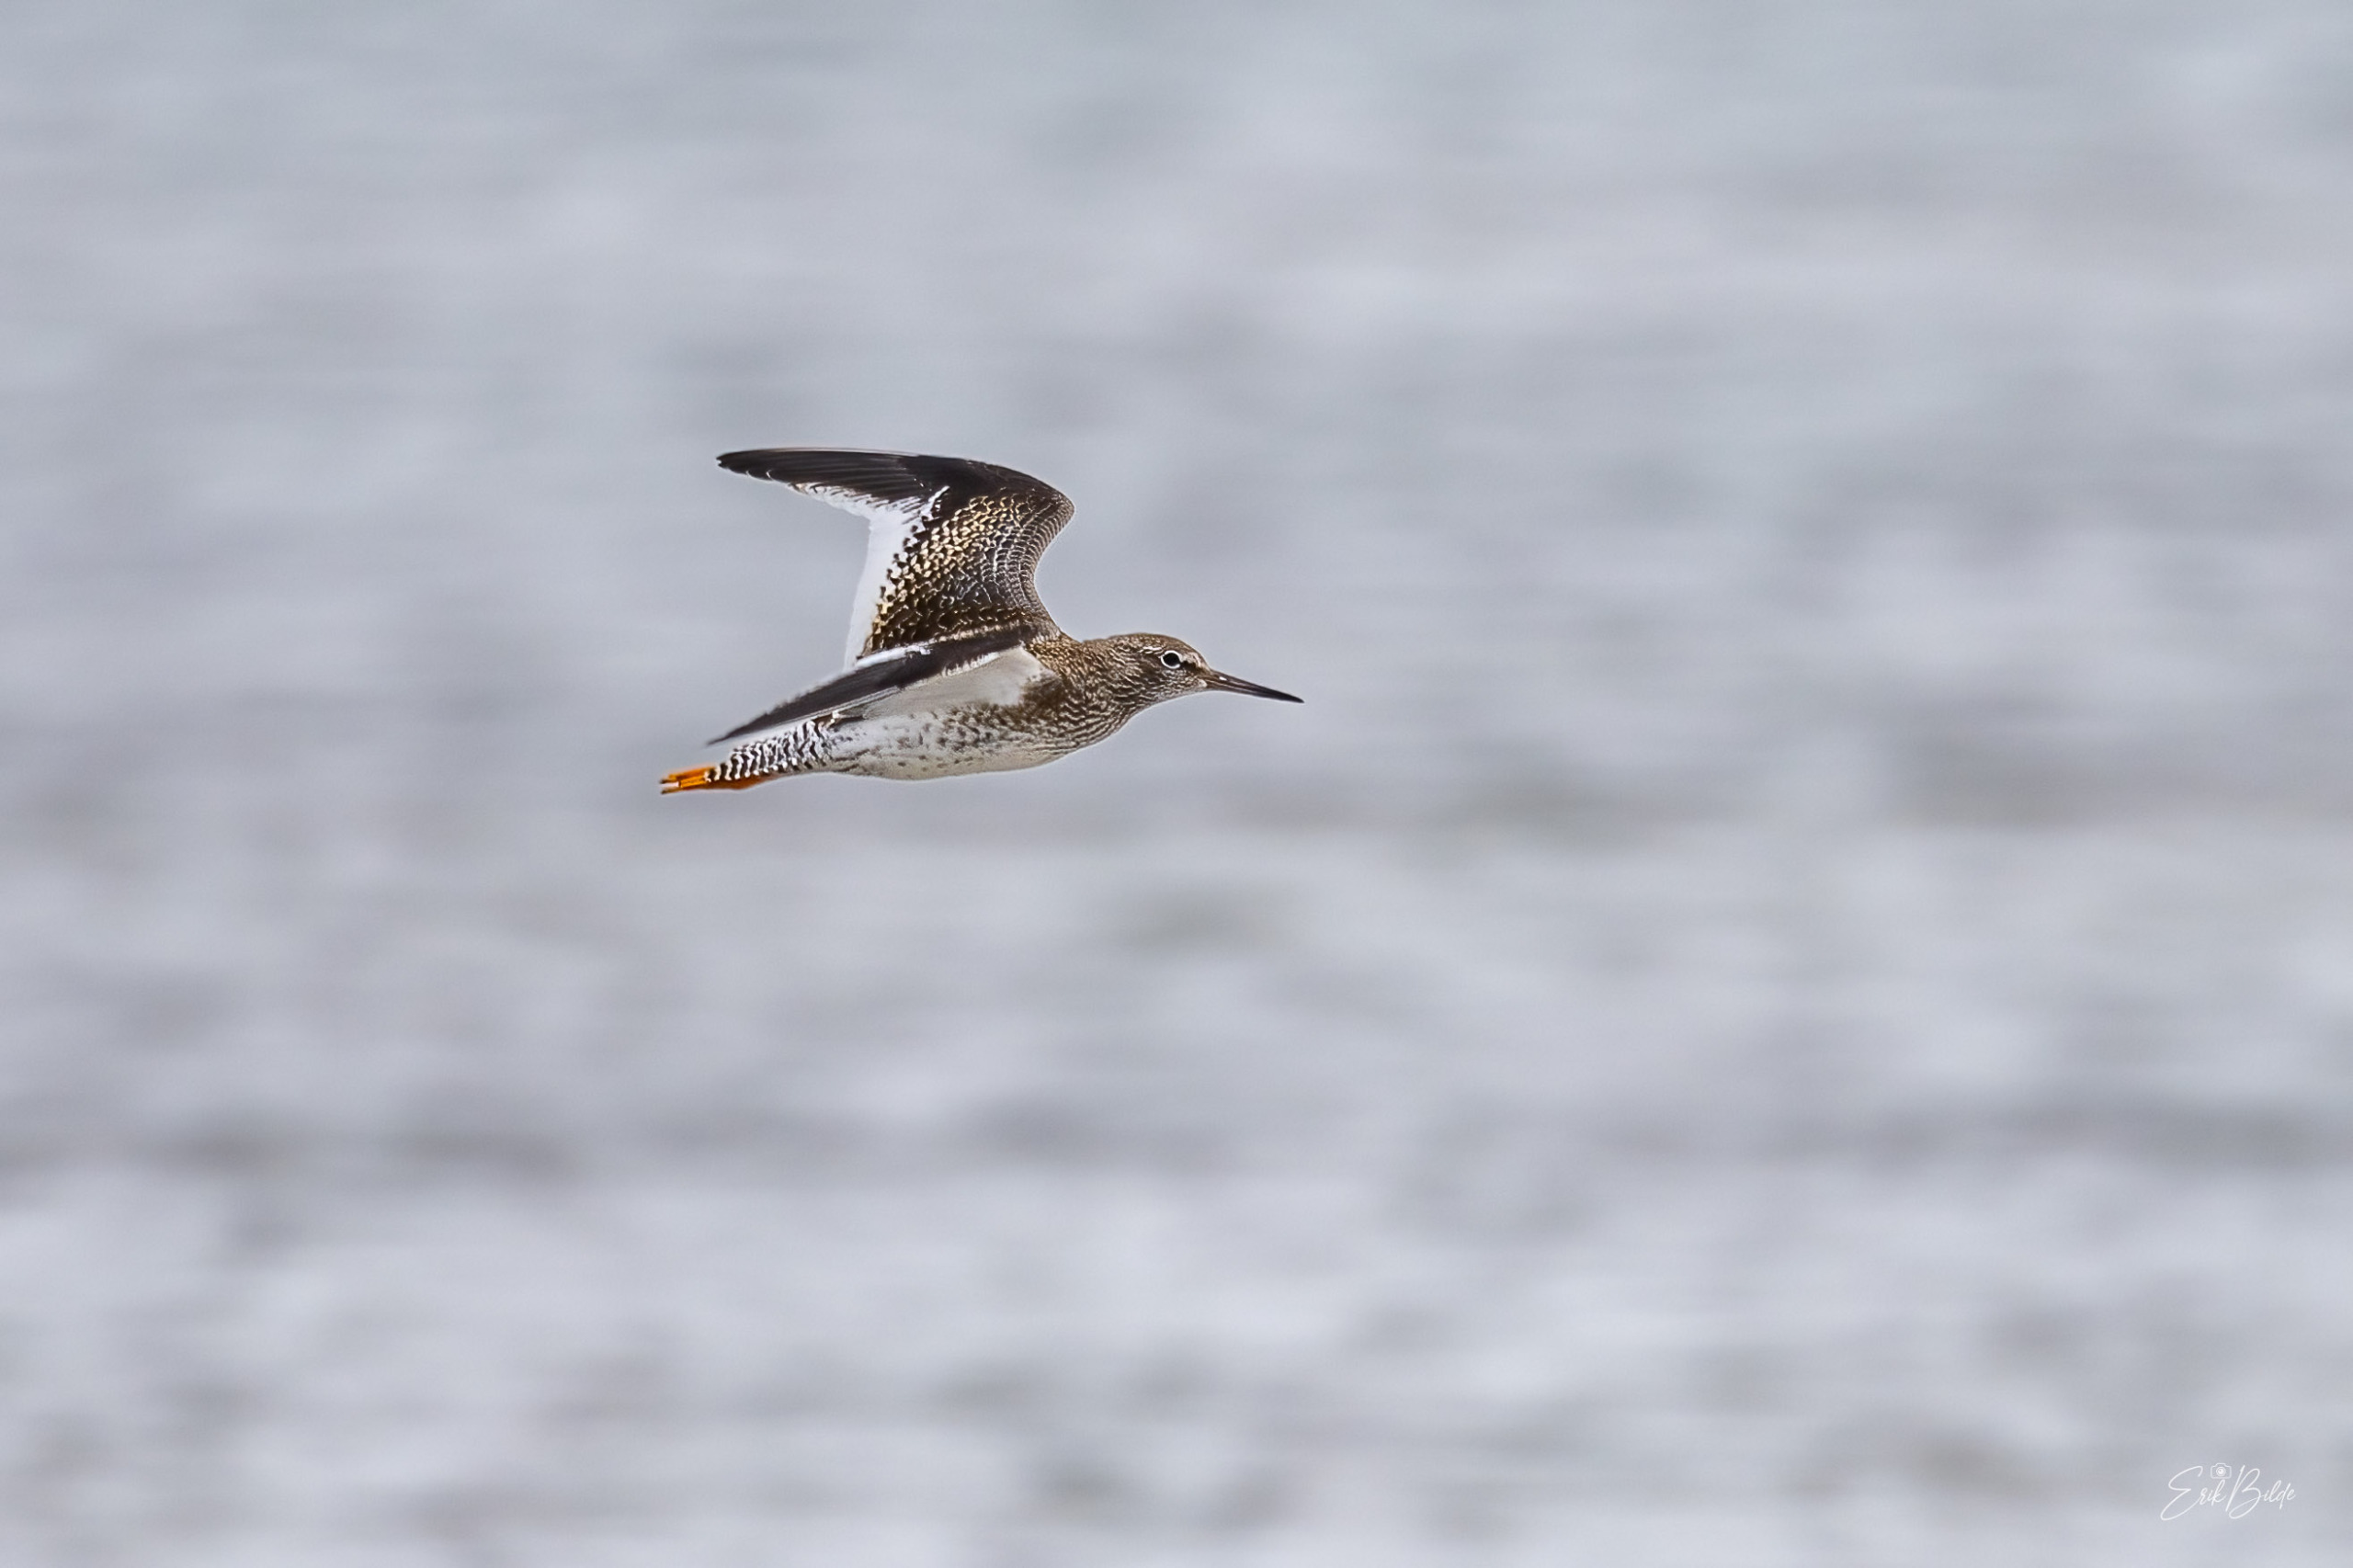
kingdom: Animalia
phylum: Chordata
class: Aves
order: Charadriiformes
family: Scolopacidae
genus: Tringa
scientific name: Tringa totanus
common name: Rødben
